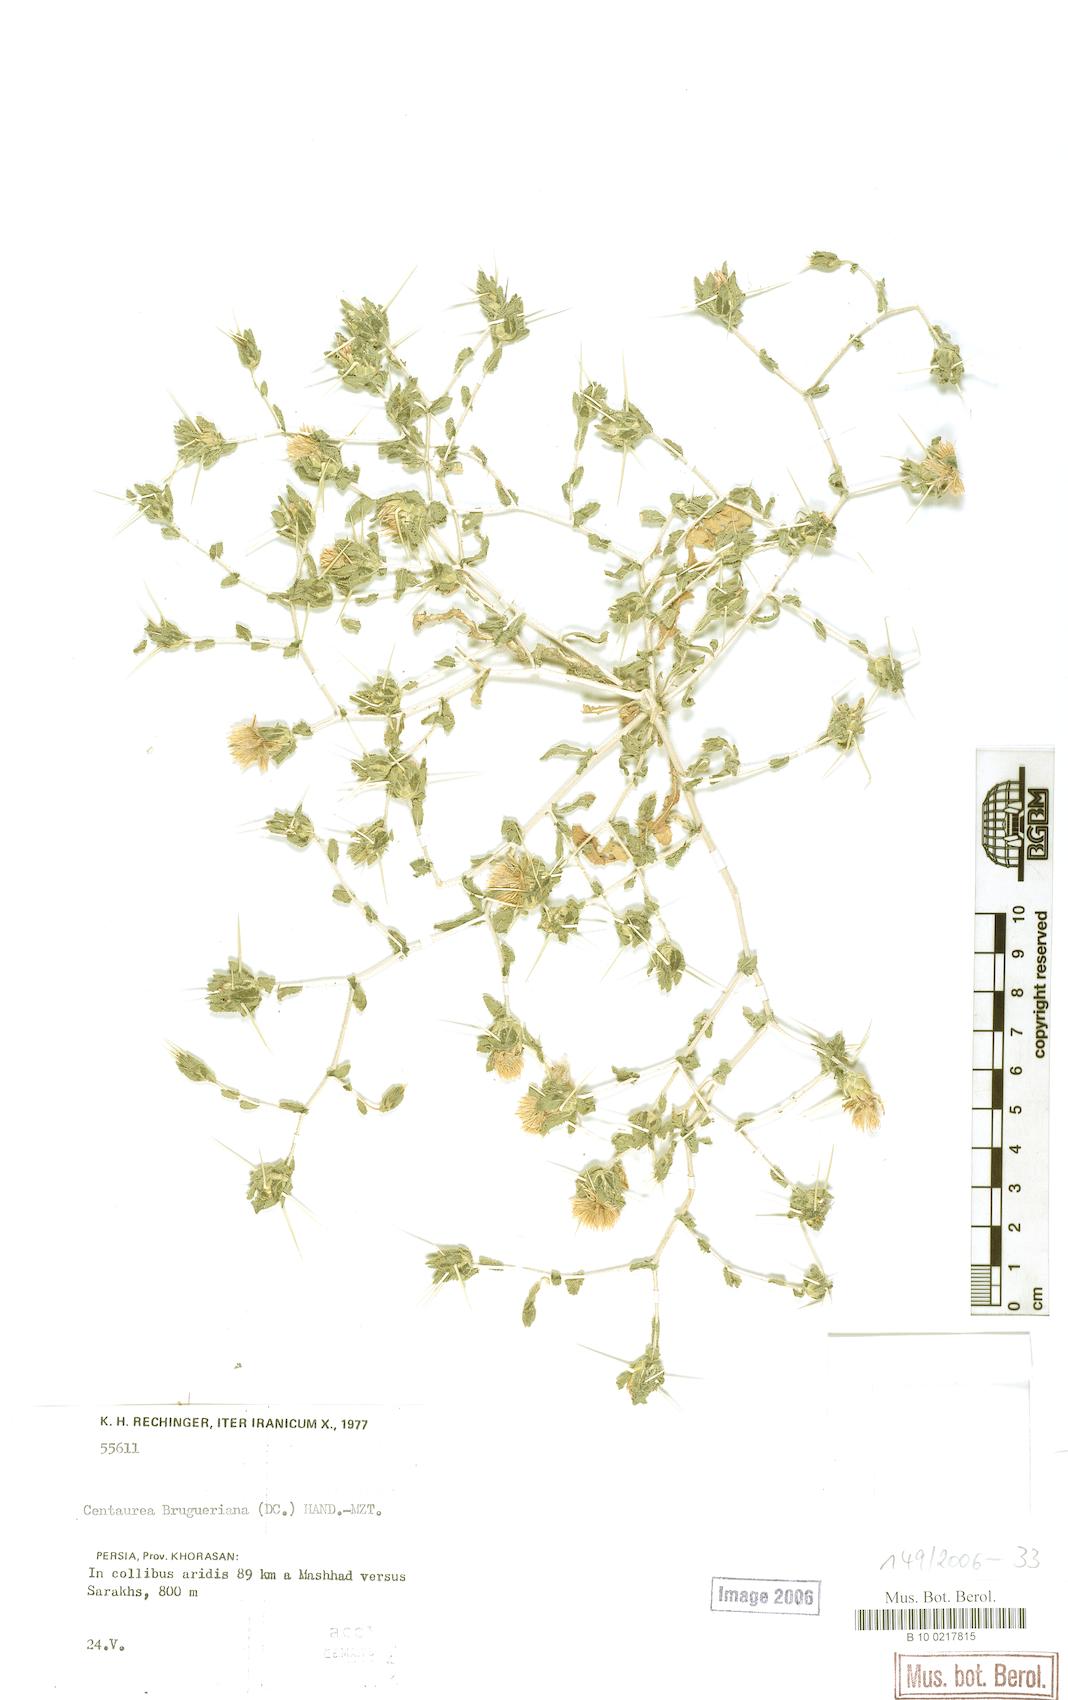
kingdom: Plantae
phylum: Tracheophyta
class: Magnoliopsida
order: Asterales
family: Asteraceae
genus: Centaurea
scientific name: Centaurea bruguieriana
